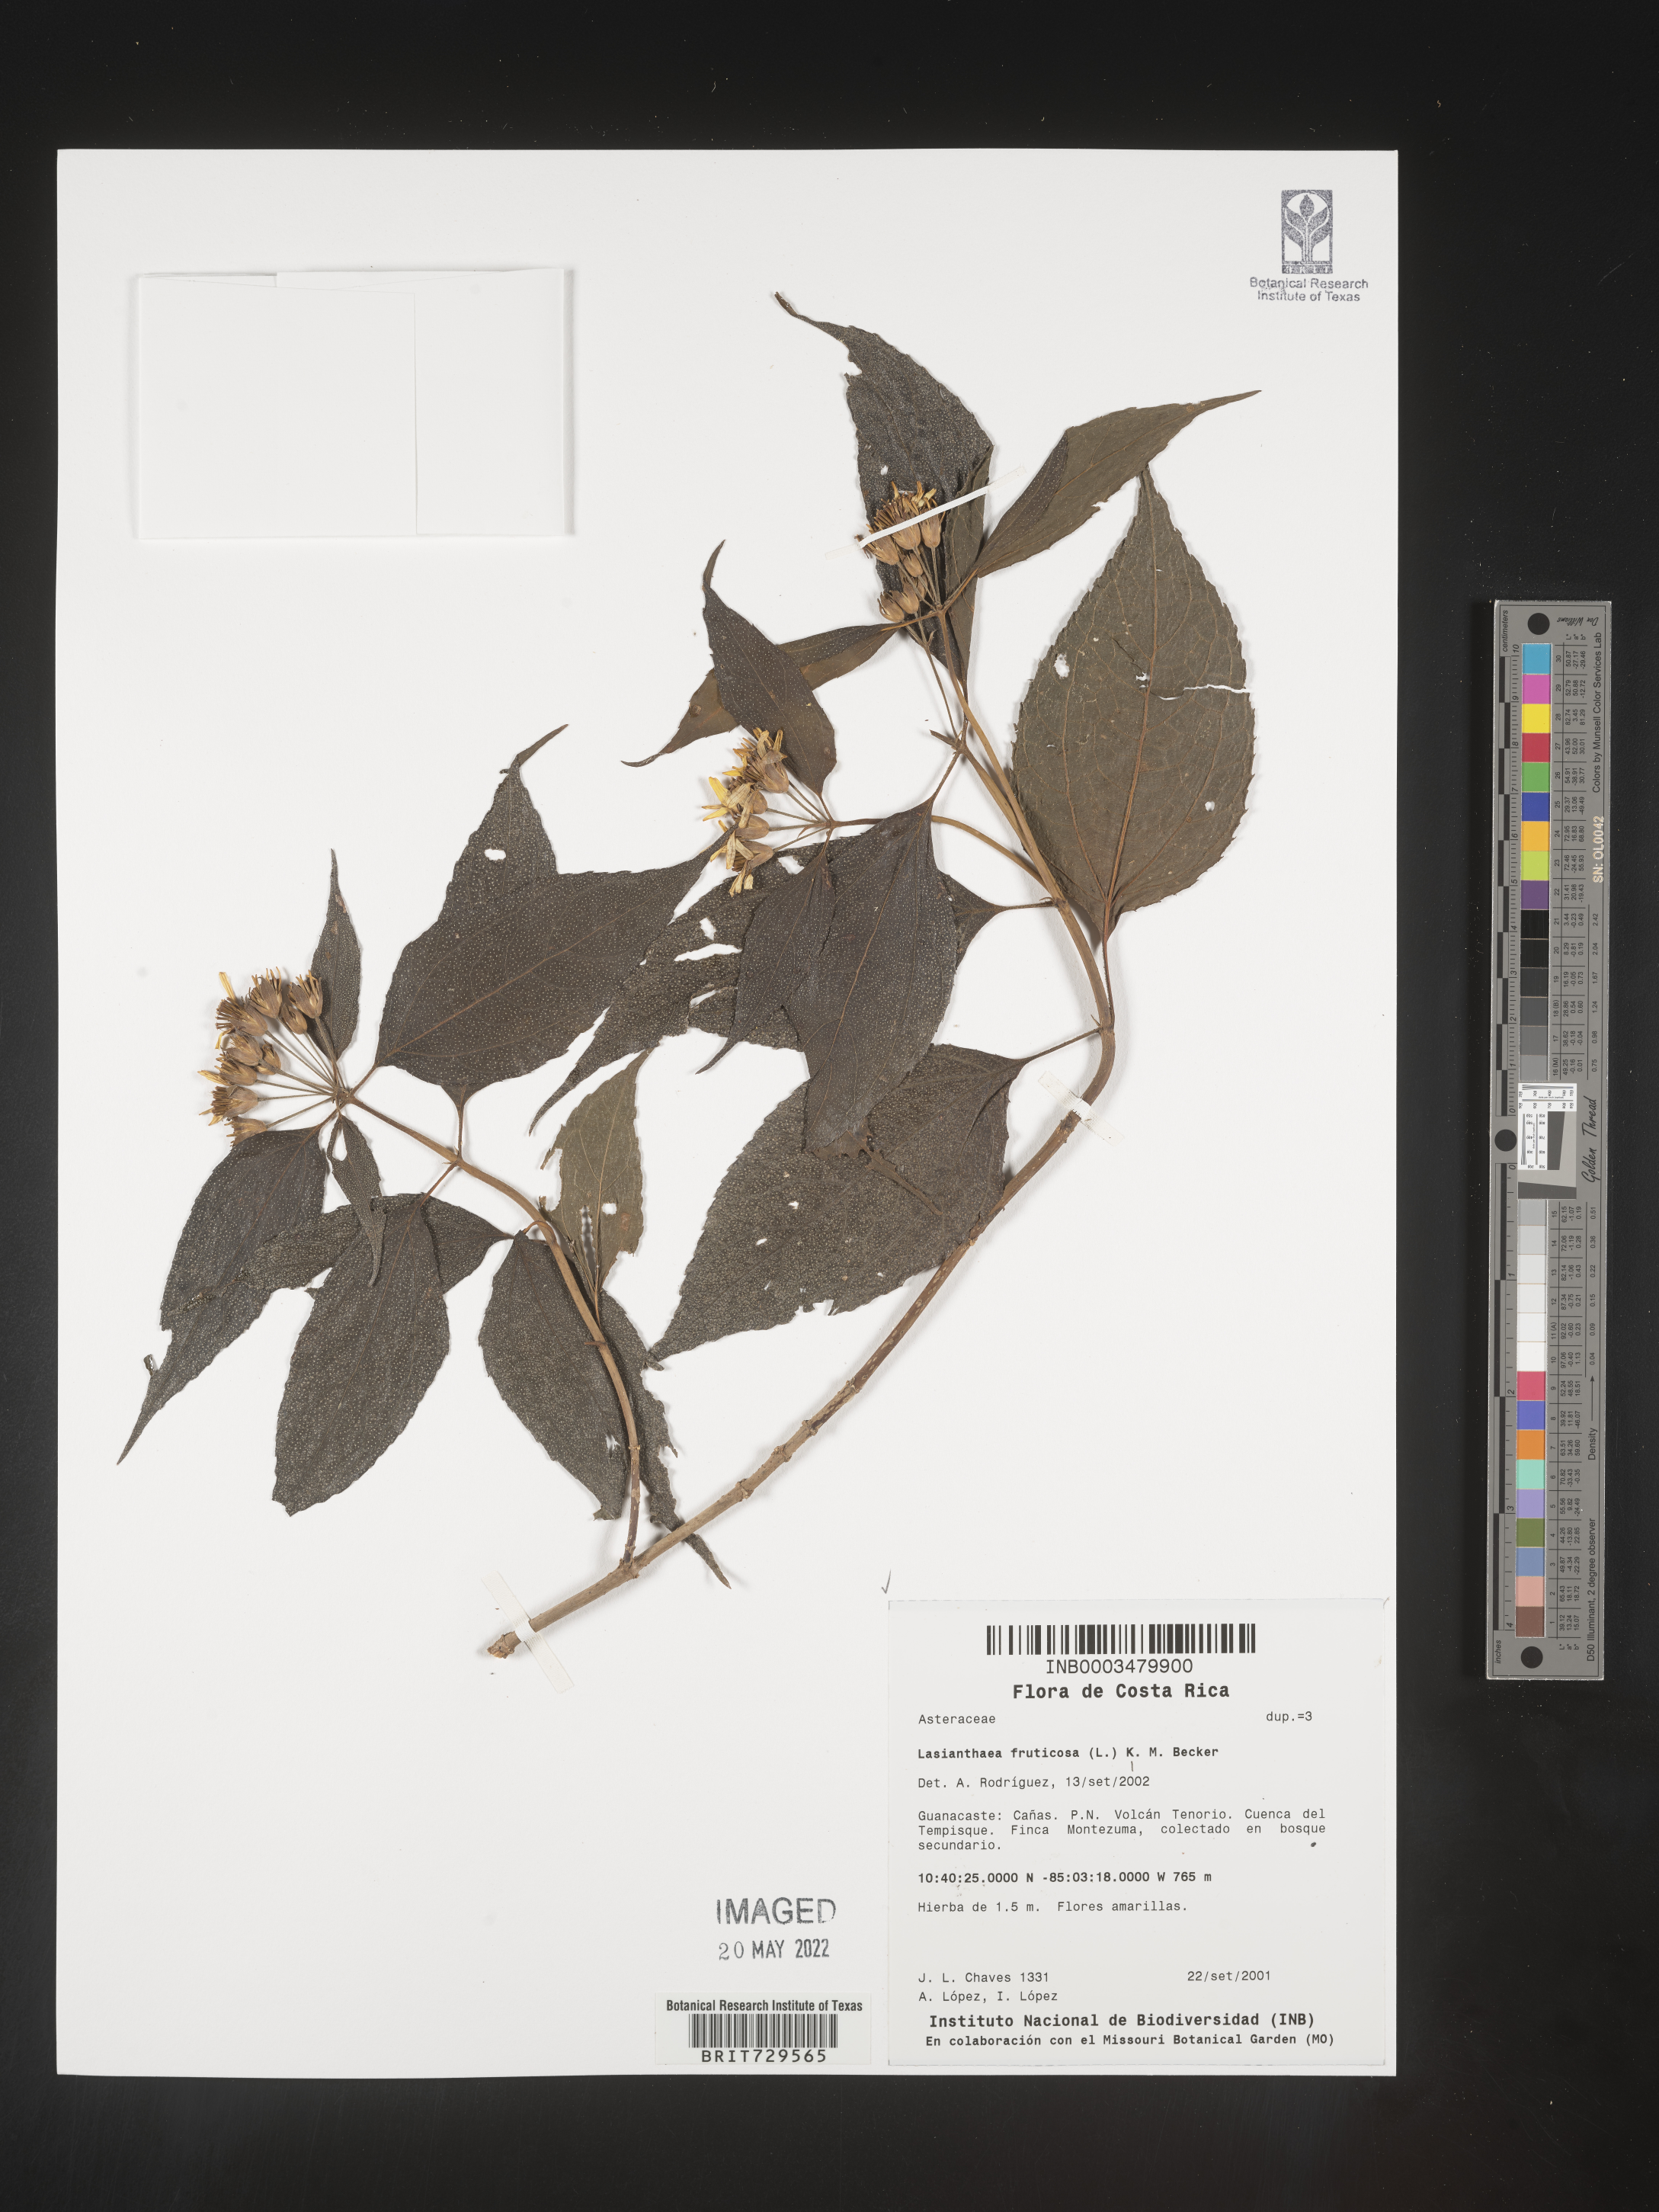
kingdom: Plantae
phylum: Tracheophyta
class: Magnoliopsida
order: Asterales
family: Asteraceae
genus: Lasianthaea
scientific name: Lasianthaea
